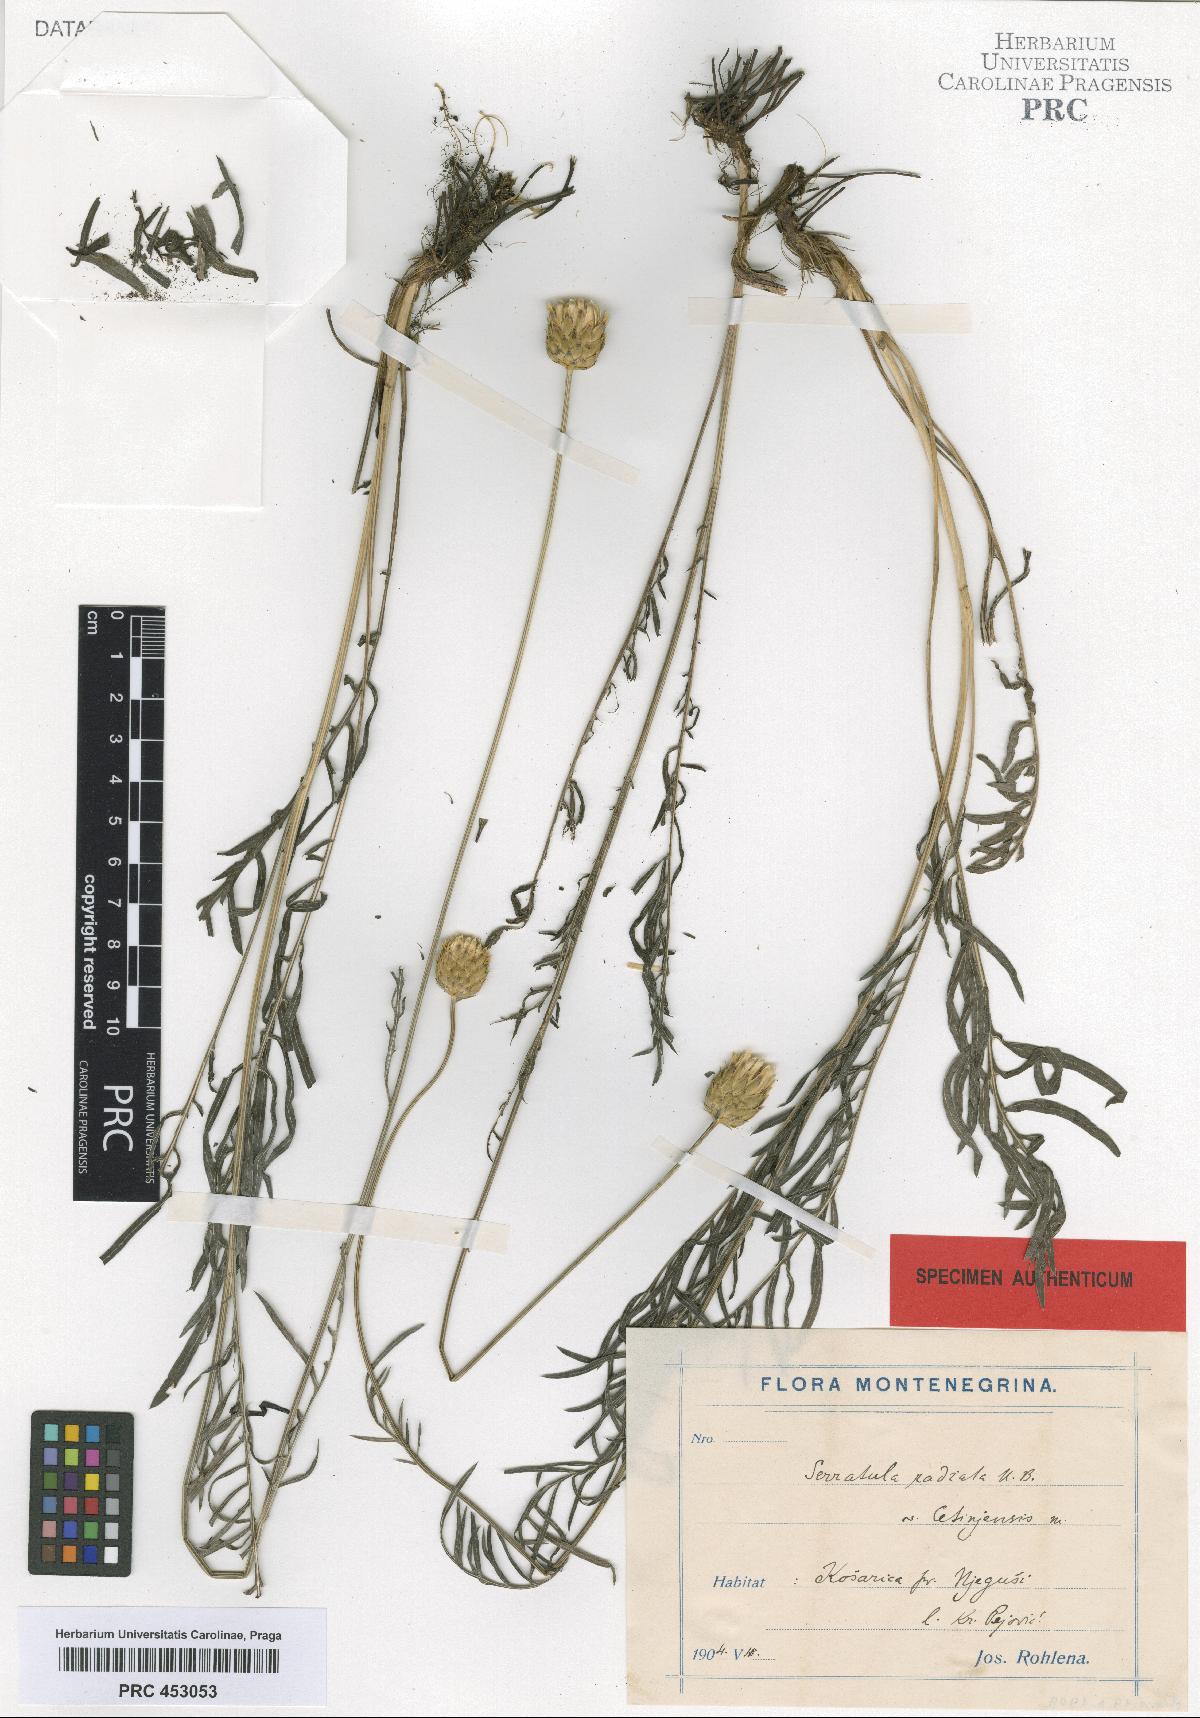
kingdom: Plantae
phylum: Tracheophyta
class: Magnoliopsida
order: Asterales
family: Asteraceae
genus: Klasea
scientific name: Klasea radiata
